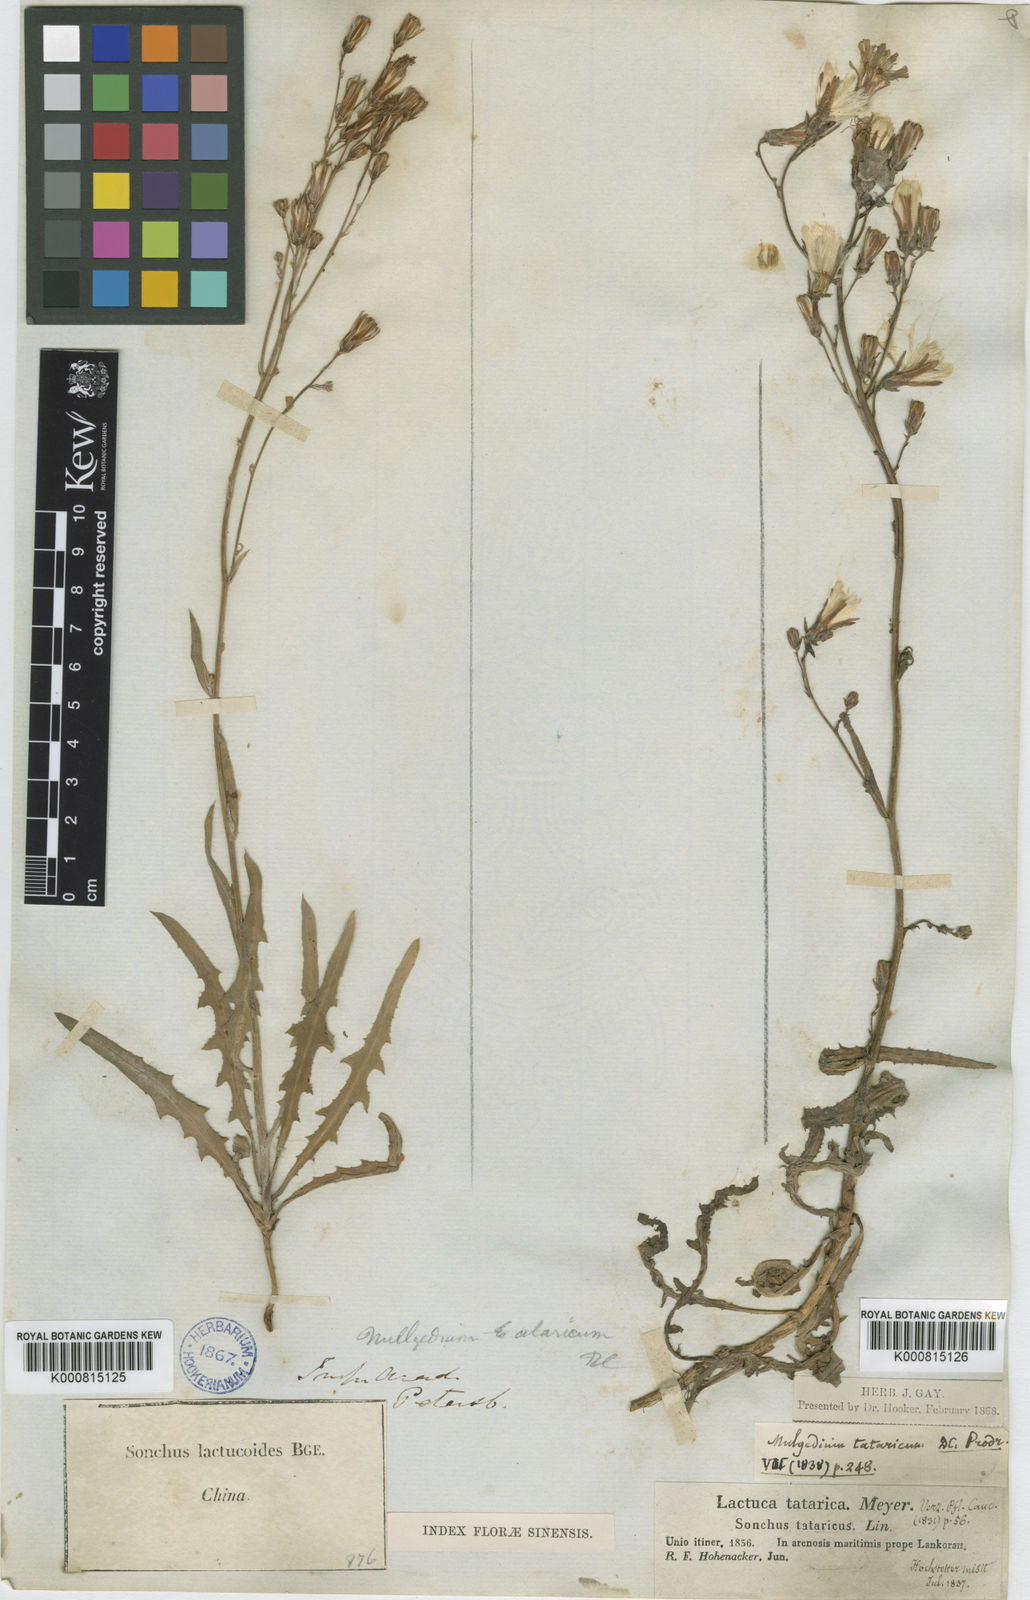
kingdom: Plantae
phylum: Tracheophyta
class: Magnoliopsida
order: Asterales
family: Asteraceae
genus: Lactuca
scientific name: Lactuca tatarica
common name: Blue lettuce
